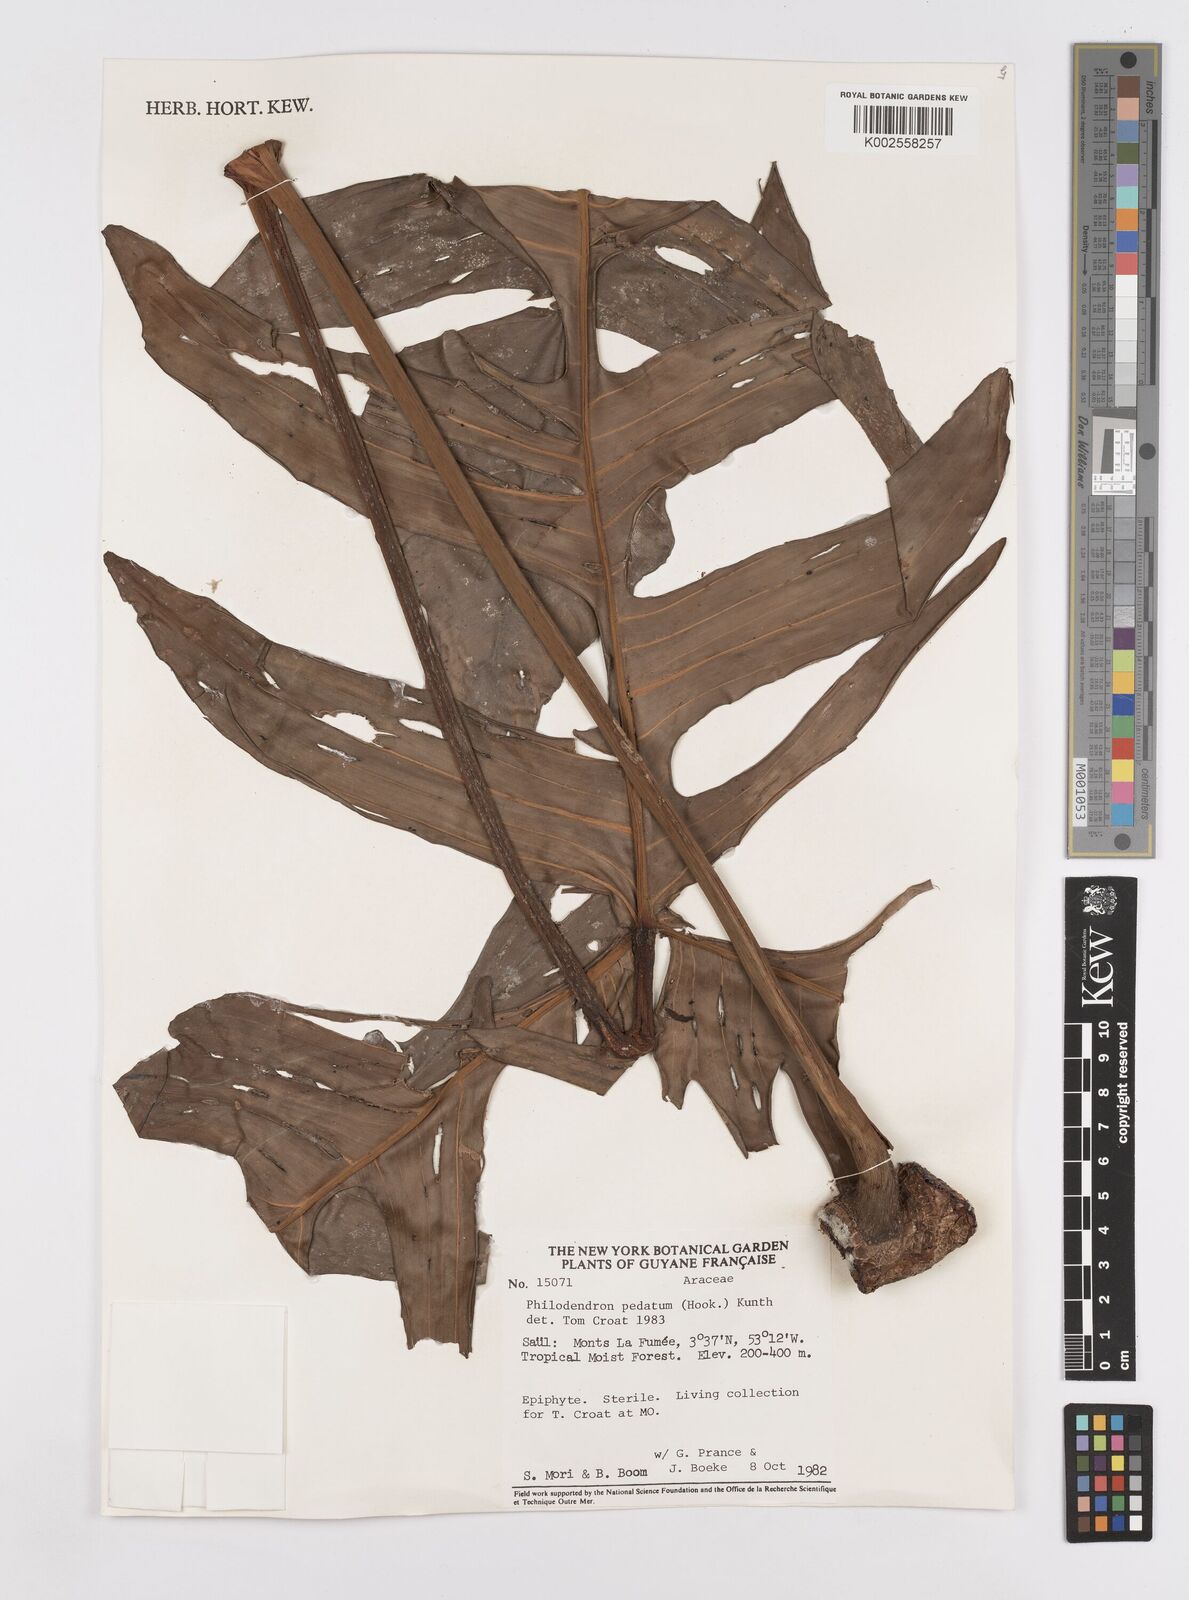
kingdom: Plantae
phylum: Tracheophyta
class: Liliopsida
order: Alismatales
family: Araceae
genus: Philodendron
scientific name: Philodendron pedatum
